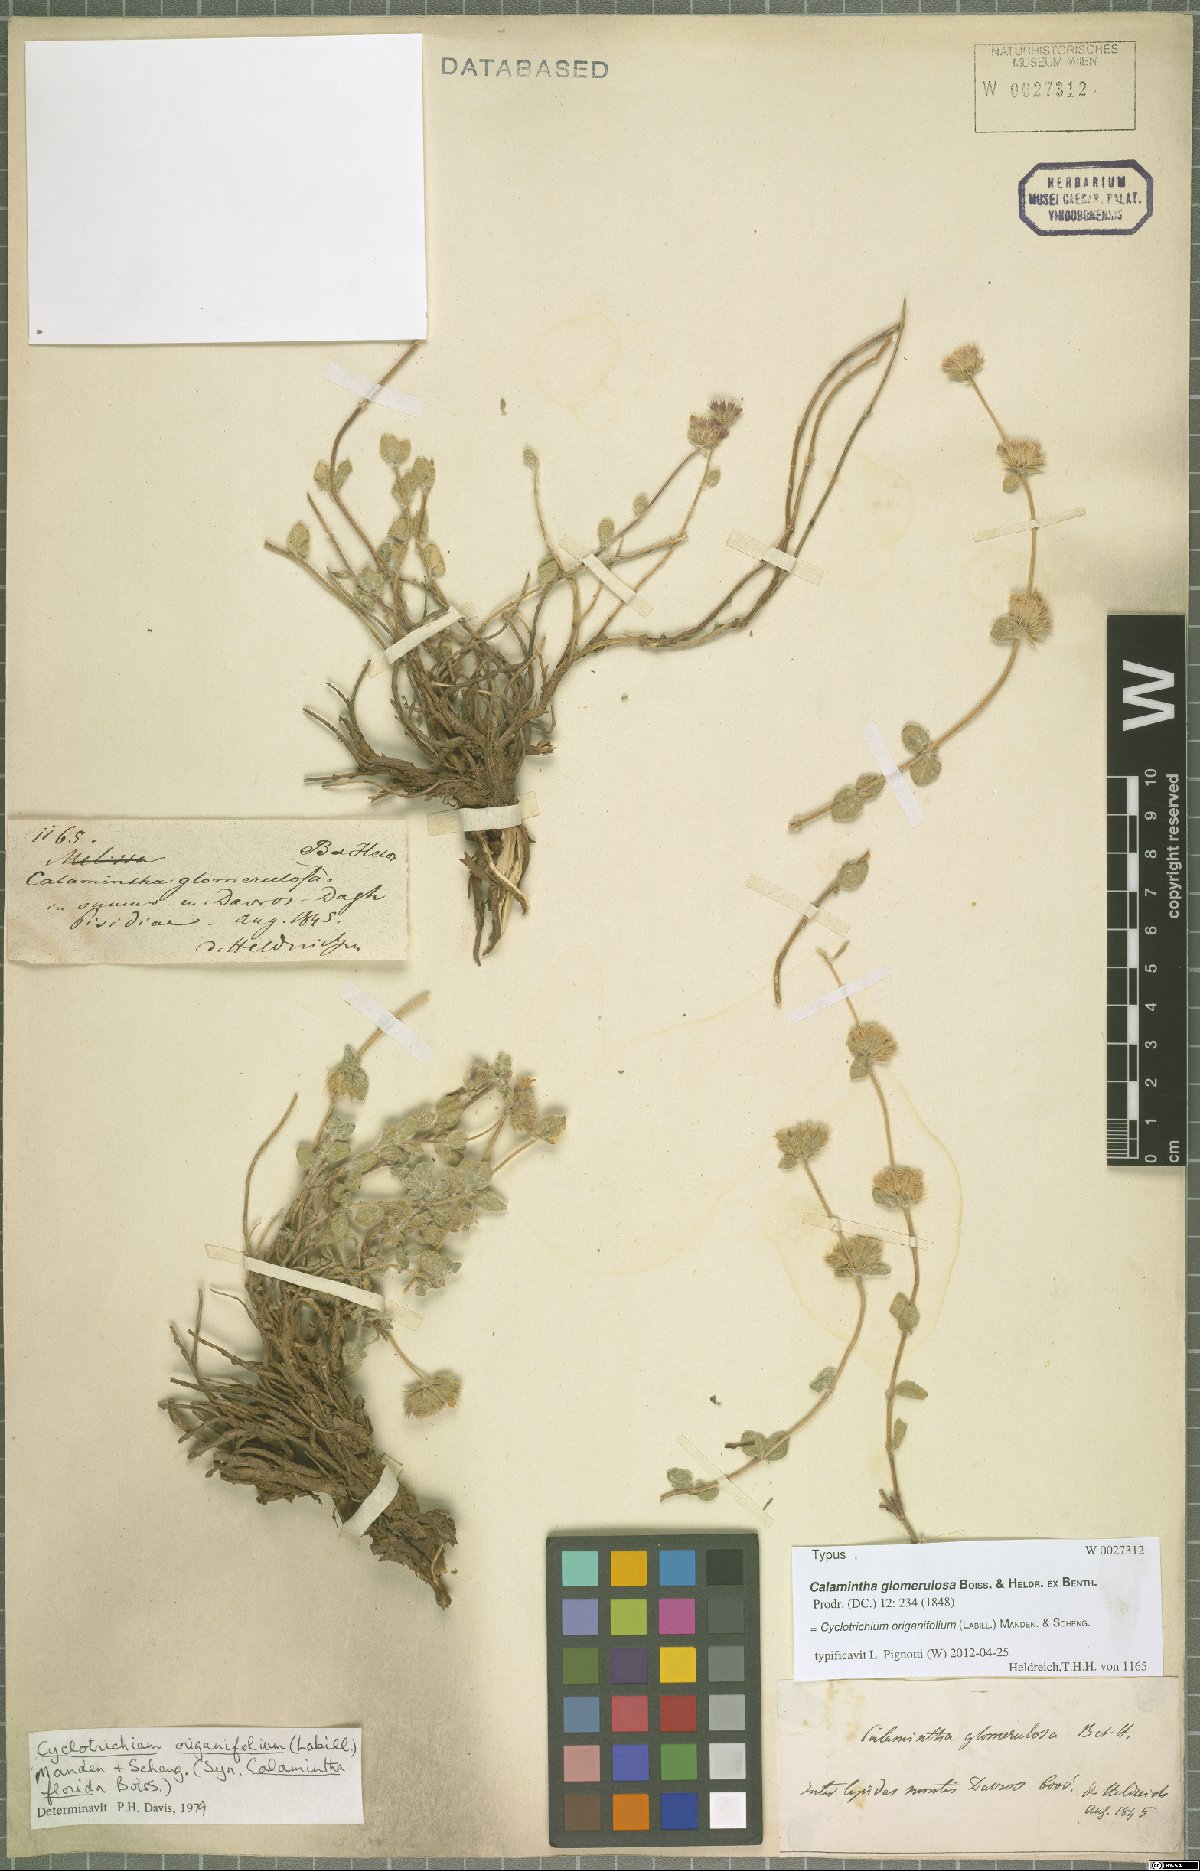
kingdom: Plantae
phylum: Tracheophyta
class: Magnoliopsida
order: Lamiales
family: Lamiaceae
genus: Cyclotrichium
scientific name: Cyclotrichium origanifolium
